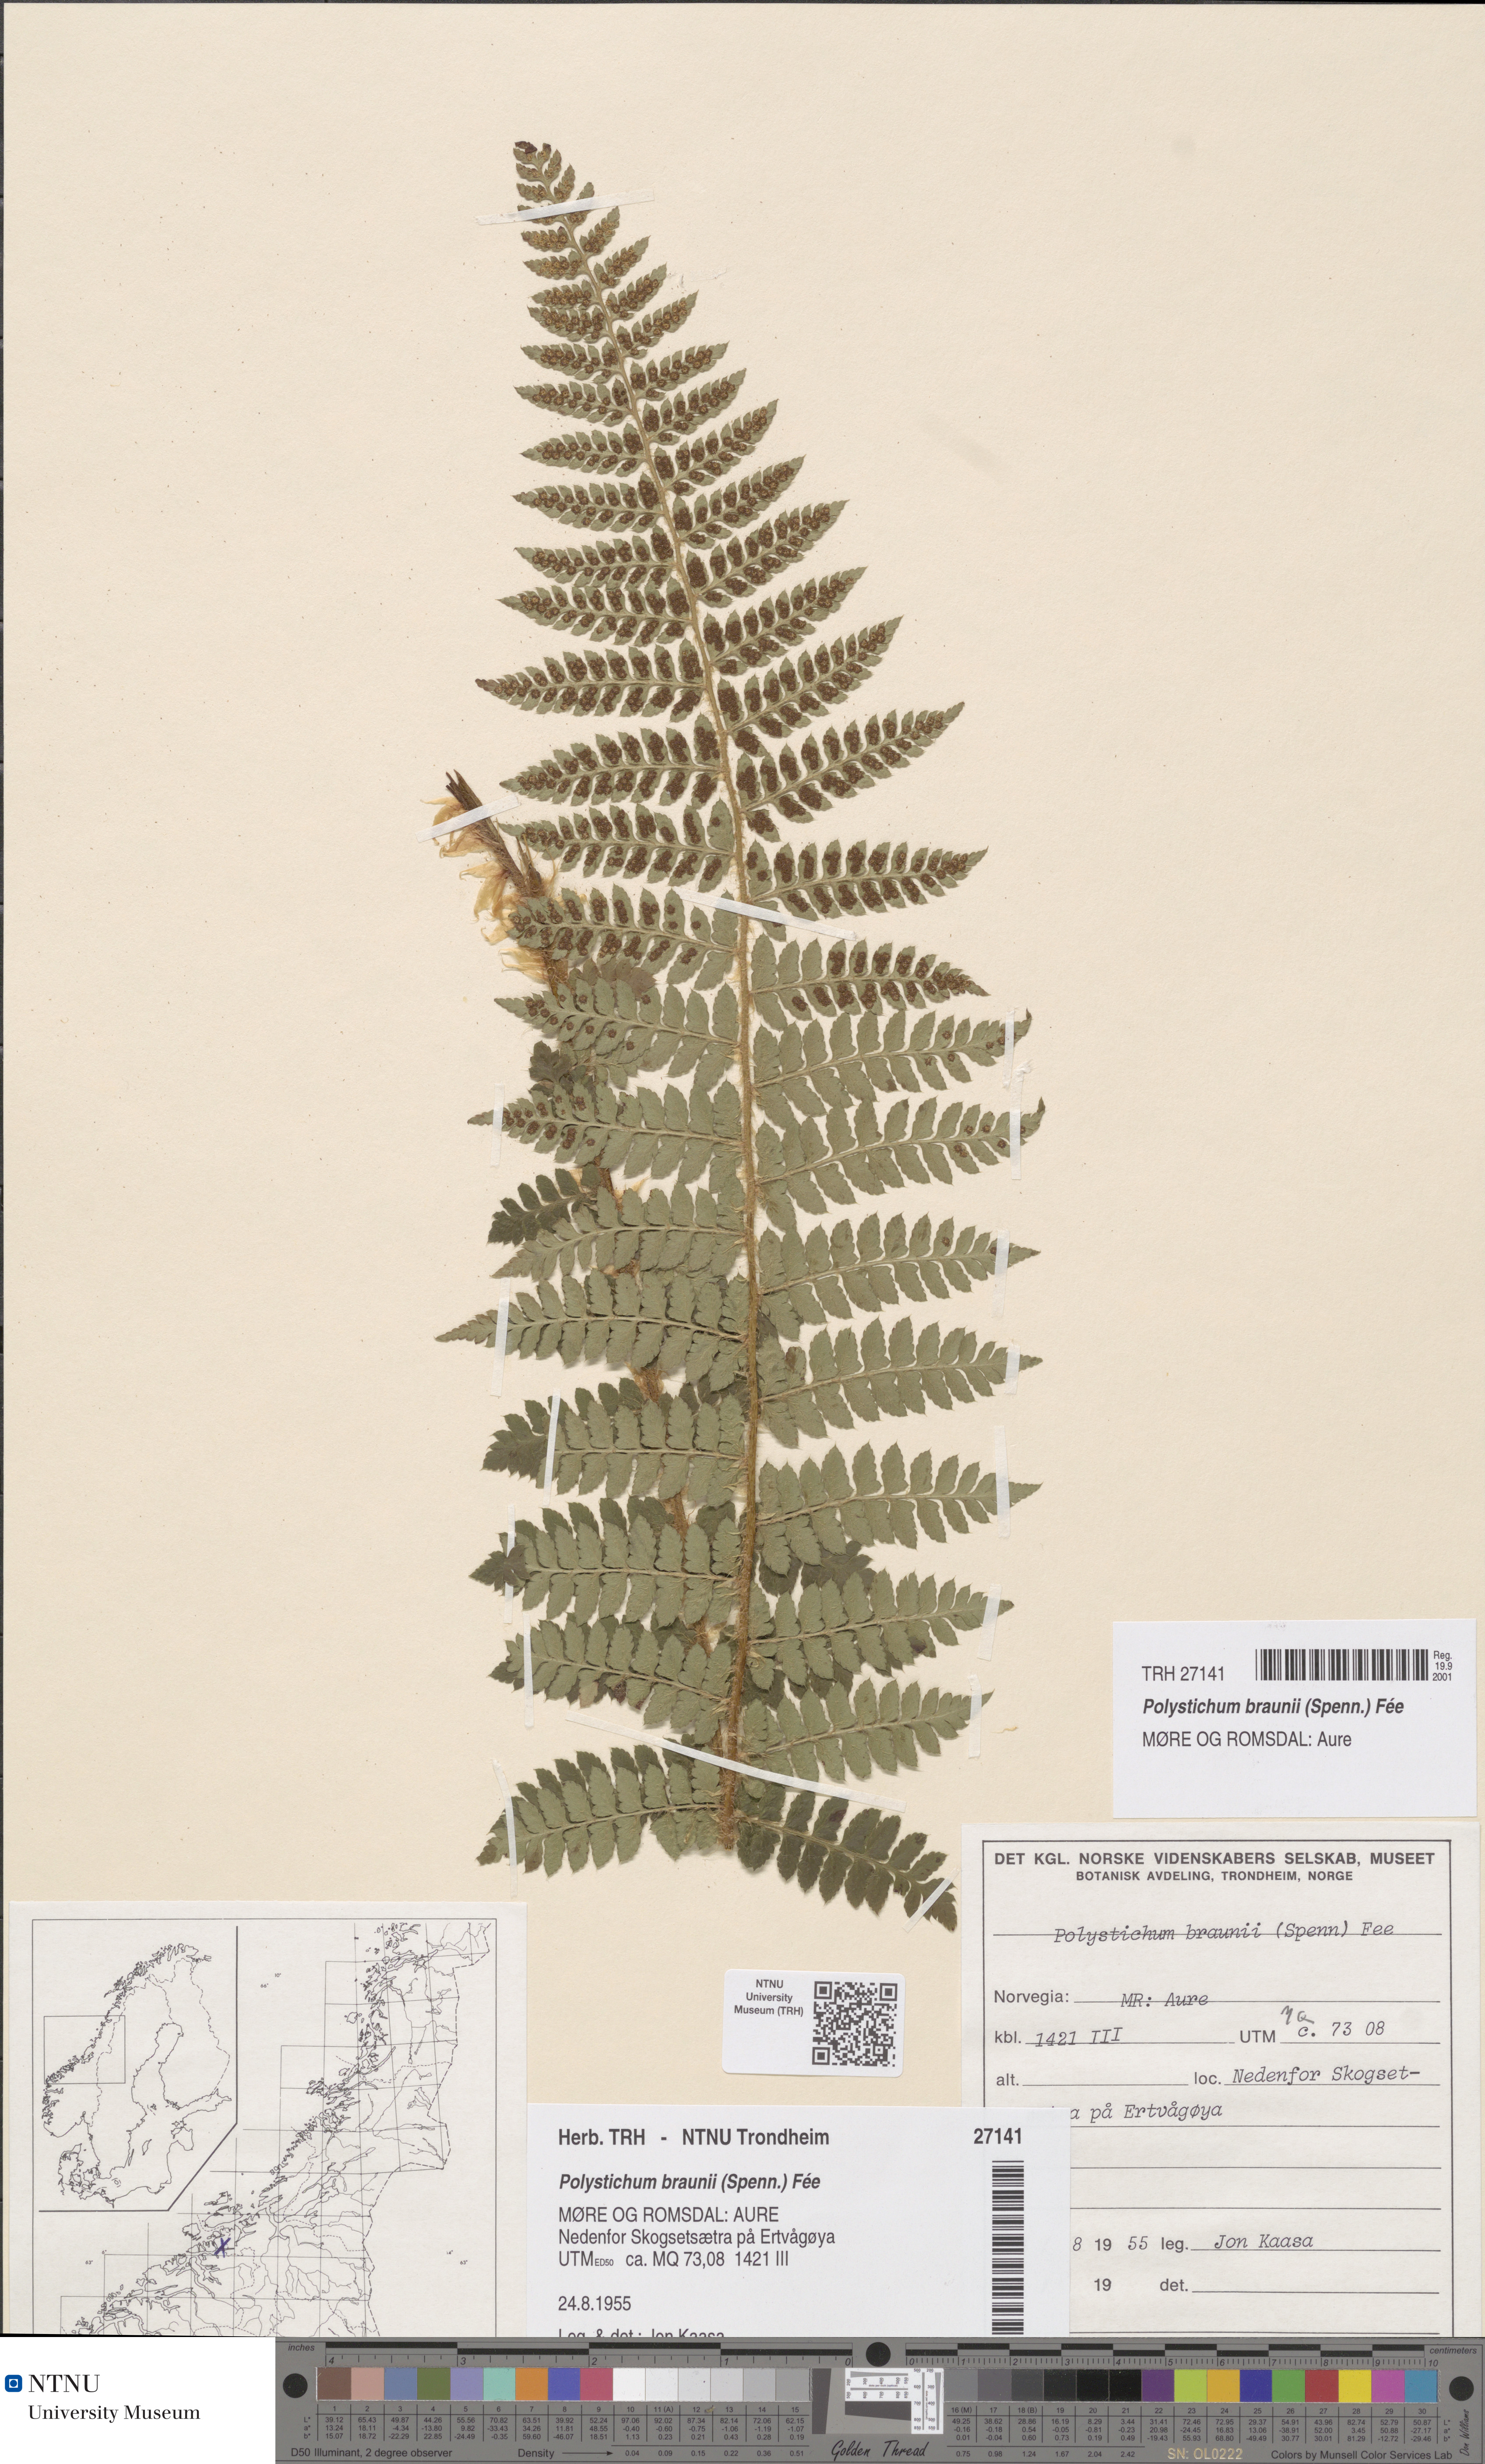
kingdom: Plantae
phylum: Tracheophyta
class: Polypodiopsida
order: Polypodiales
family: Dryopteridaceae
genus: Polystichum
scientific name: Polystichum braunii
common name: Braun's holly fern
